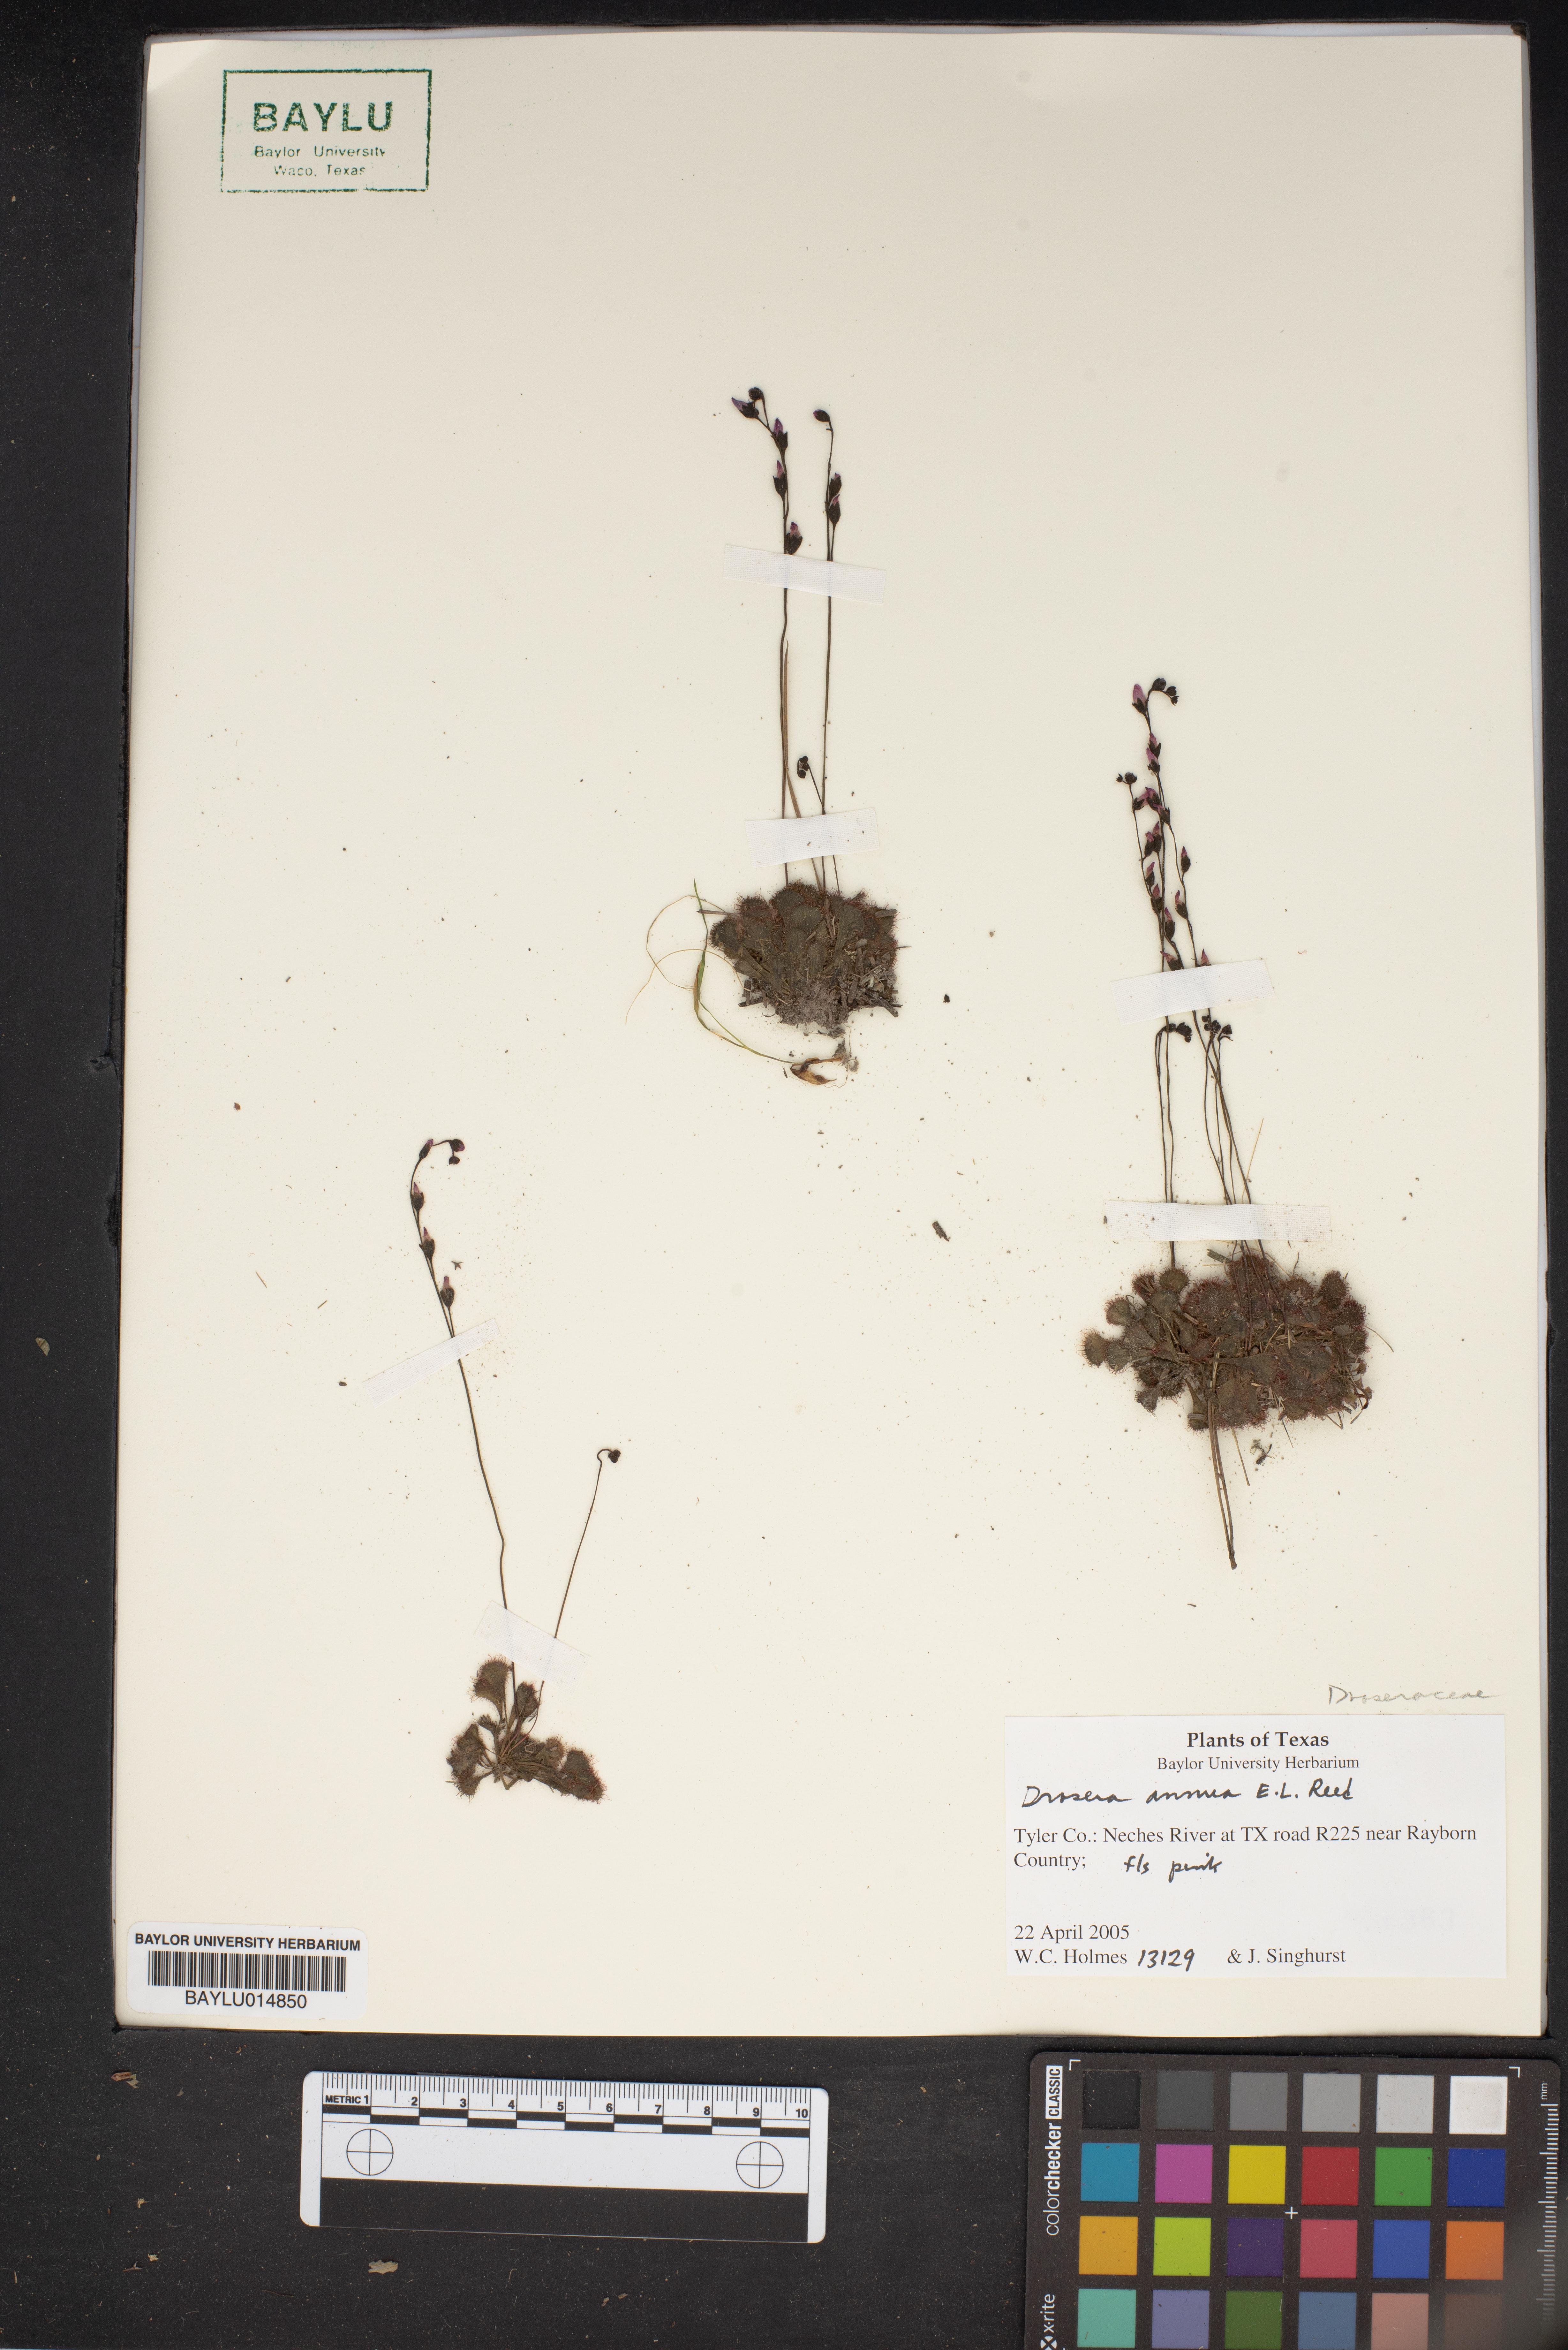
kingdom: Plantae
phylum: Tracheophyta
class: Magnoliopsida
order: Caryophyllales
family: Droseraceae
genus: Drosera
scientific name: Drosera brevifolia
